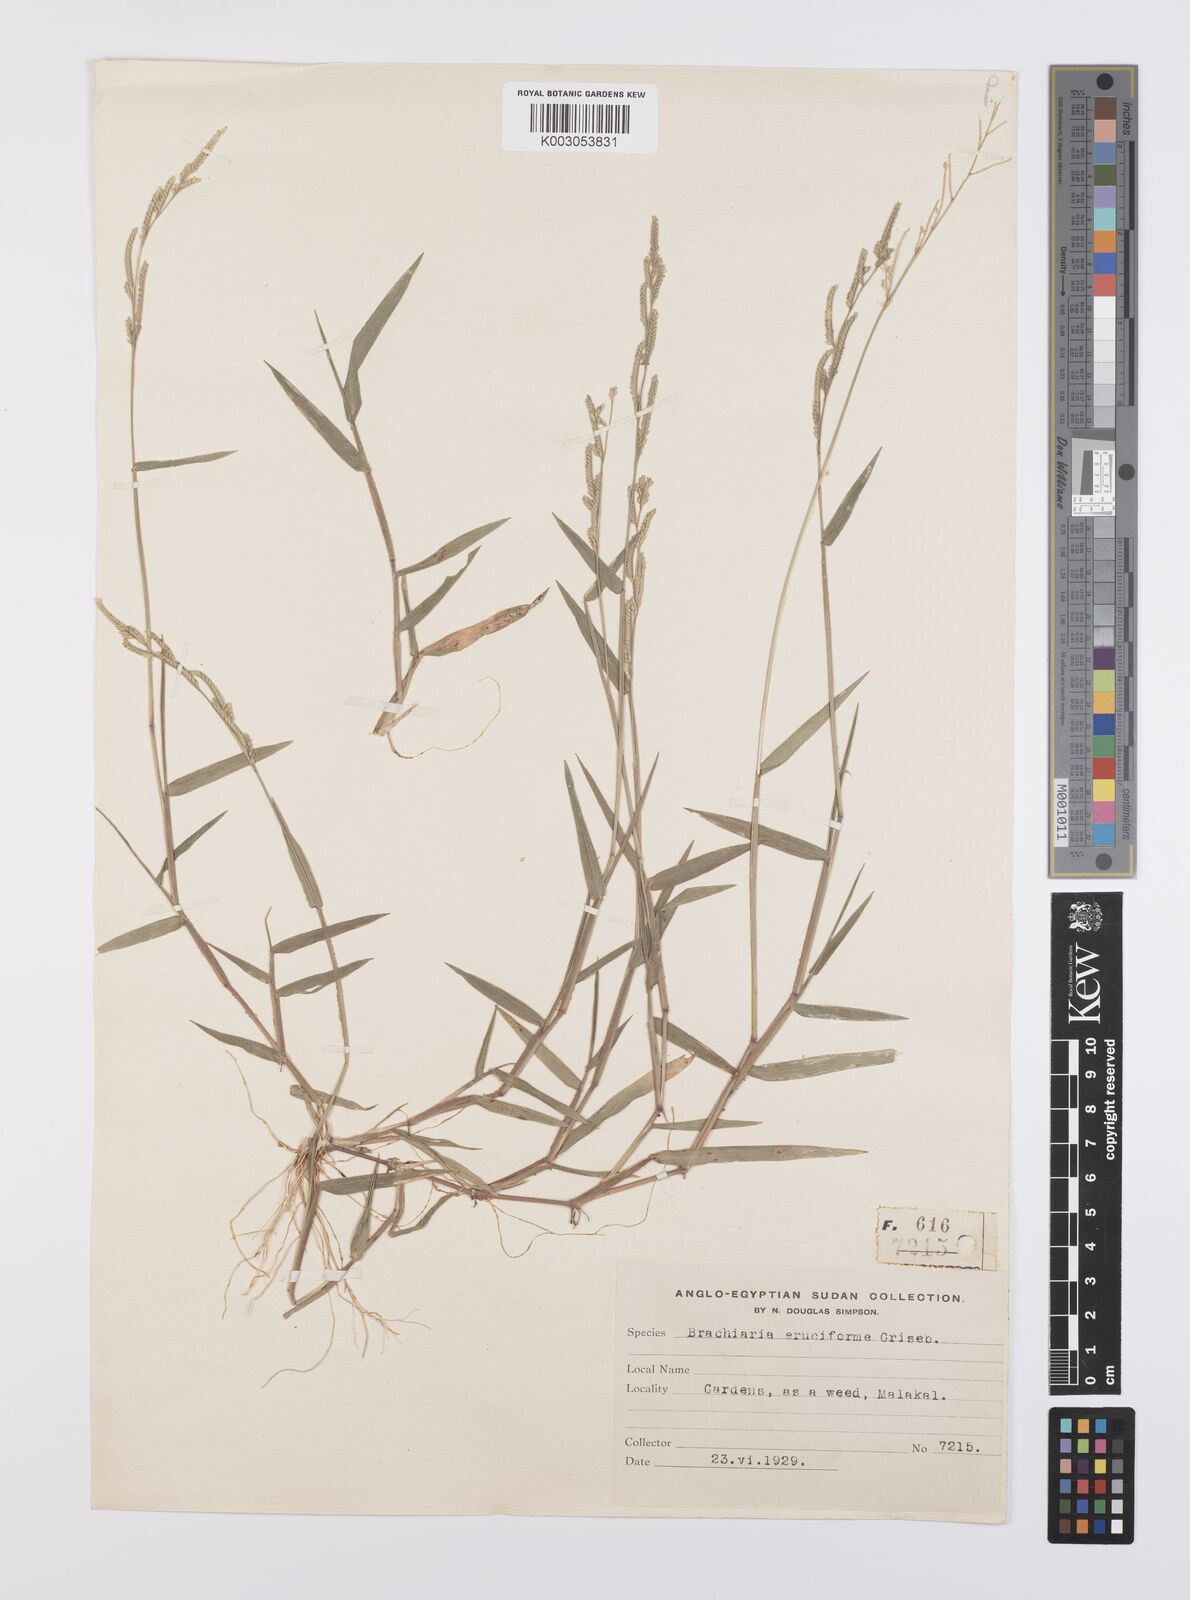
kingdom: Plantae
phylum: Tracheophyta
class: Liliopsida
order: Poales
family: Poaceae
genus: Moorochloa
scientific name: Moorochloa eruciformis
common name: Sweet signalgrass
